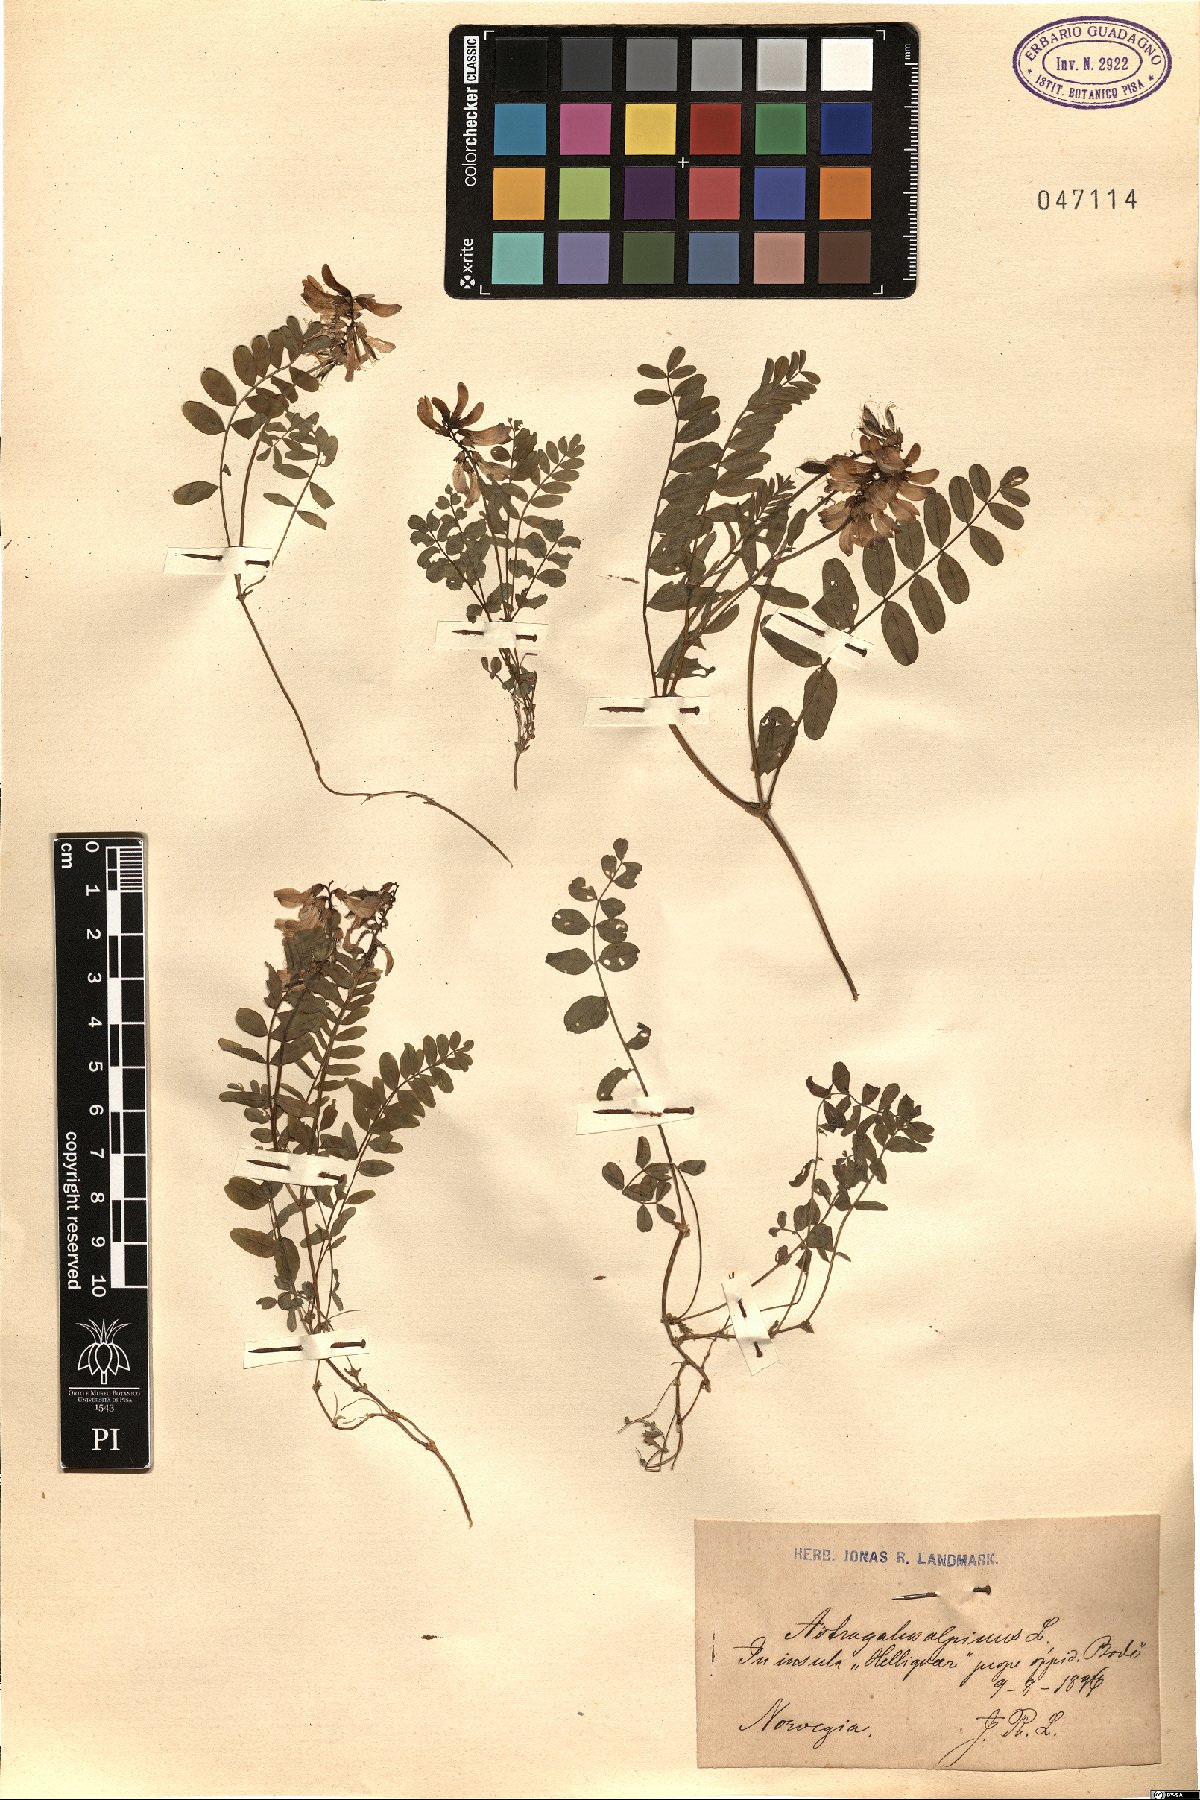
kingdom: Plantae
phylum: Tracheophyta
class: Magnoliopsida
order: Fabales
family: Fabaceae
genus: Astragalus
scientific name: Astragalus alpinus
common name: Alpine milk-vetch
